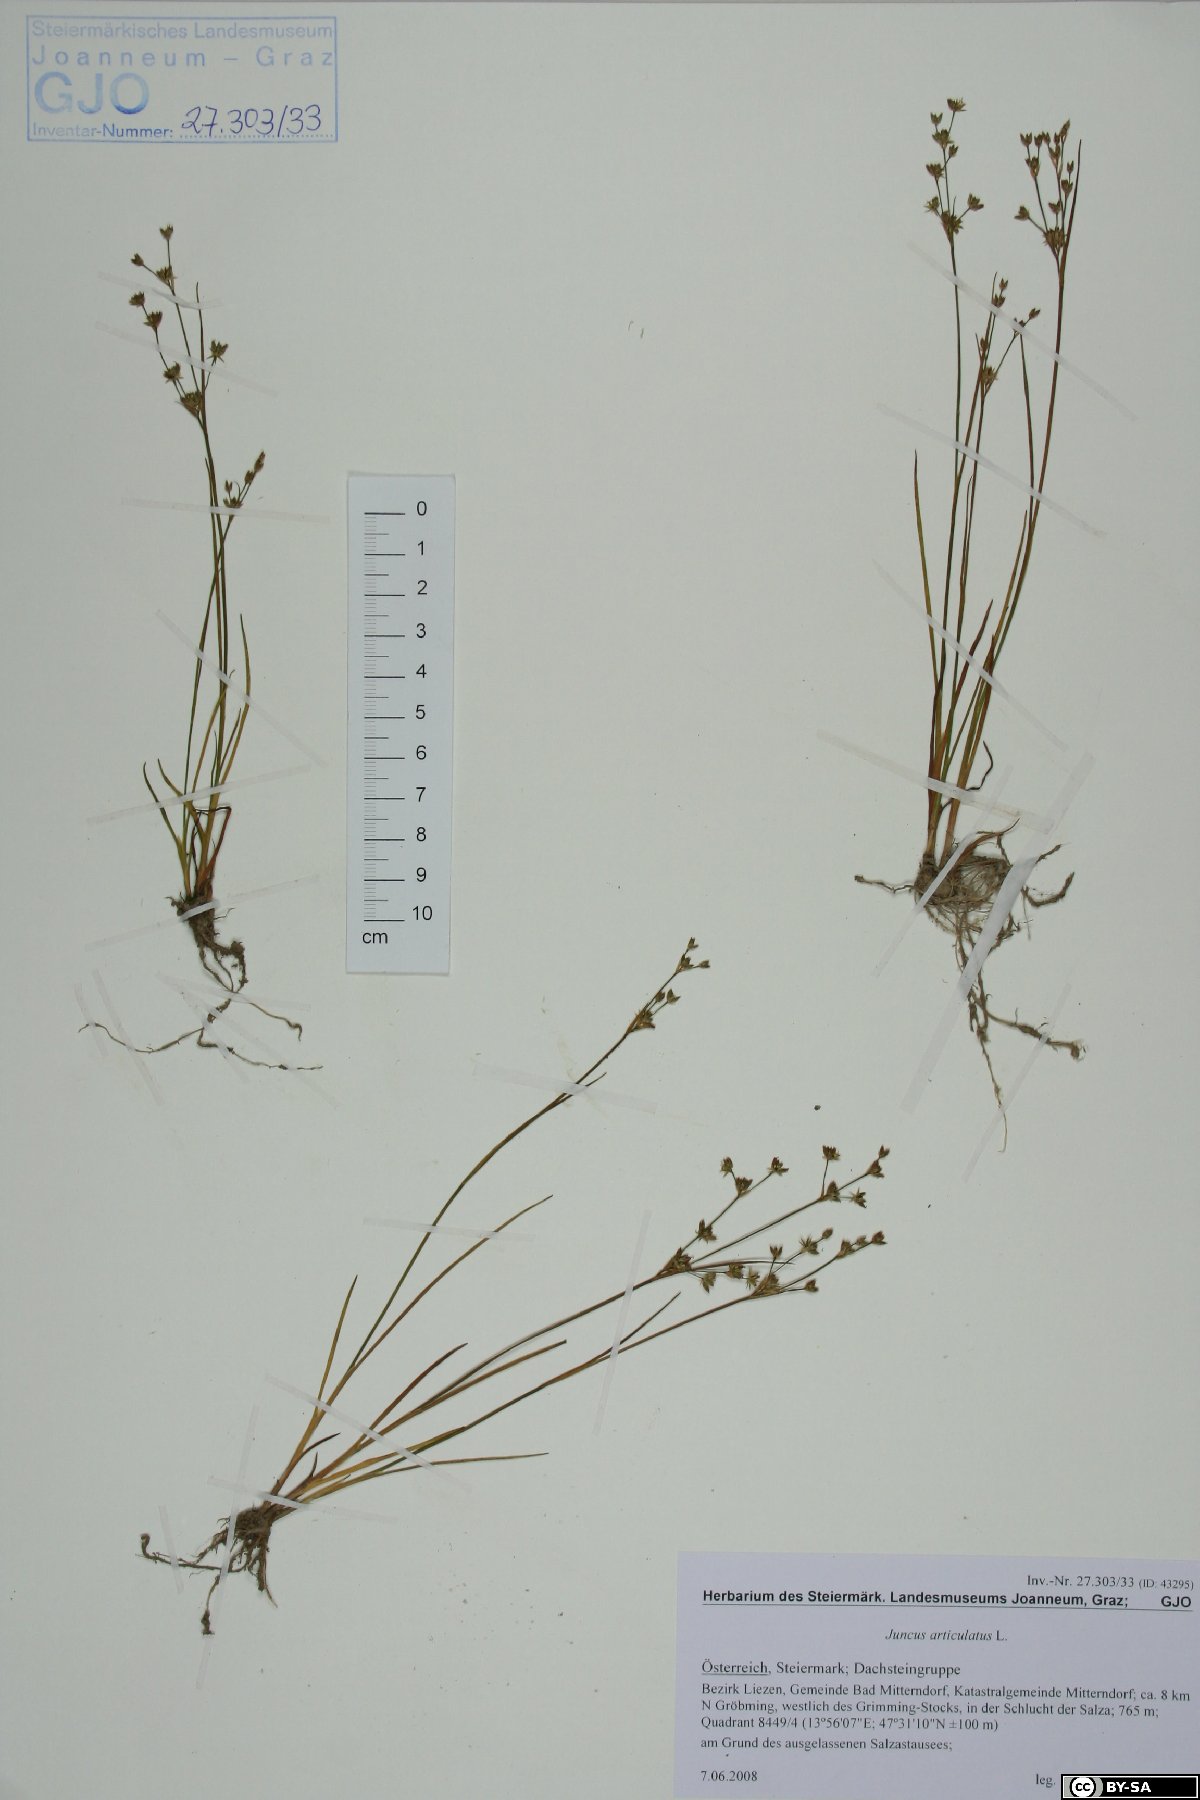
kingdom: Plantae
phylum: Tracheophyta
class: Liliopsida
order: Poales
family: Juncaceae
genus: Juncus
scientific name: Juncus articulatus
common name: Jointed rush
